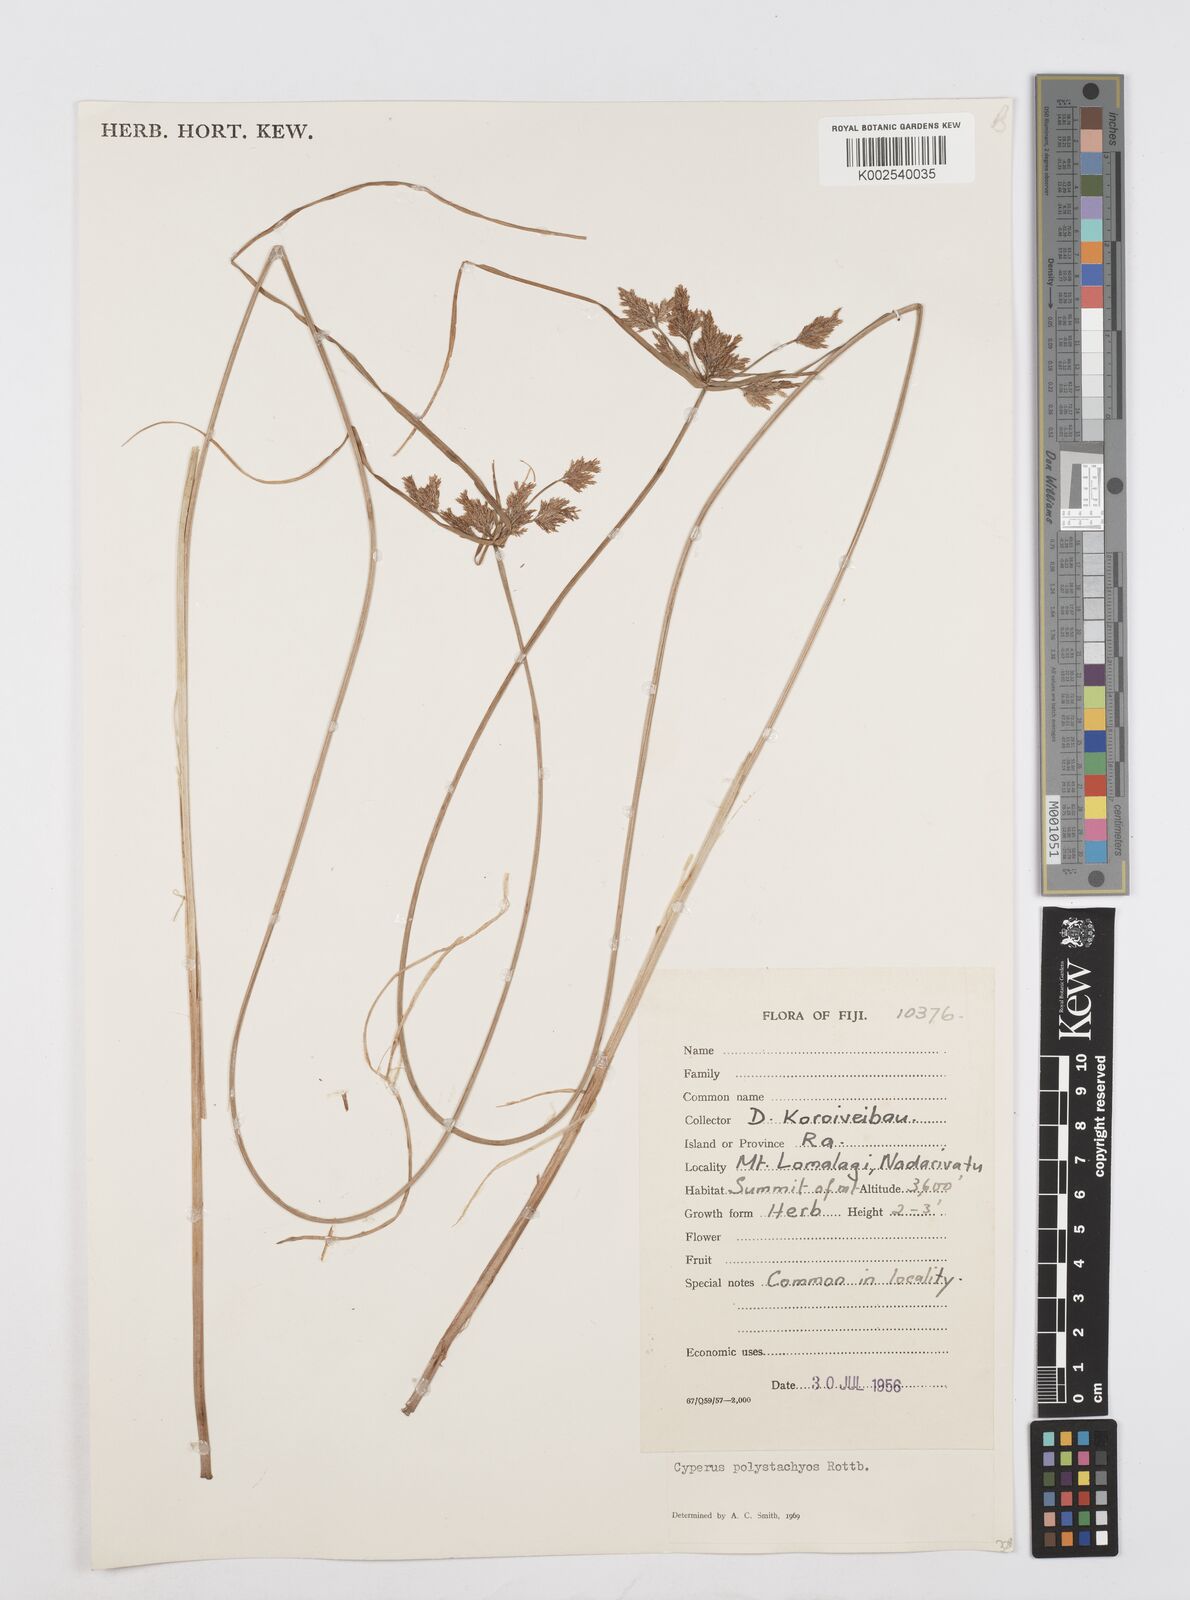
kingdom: Plantae
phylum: Tracheophyta
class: Liliopsida
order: Poales
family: Cyperaceae
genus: Cyperus
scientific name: Cyperus polystachyos
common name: Bunchy flat sedge
